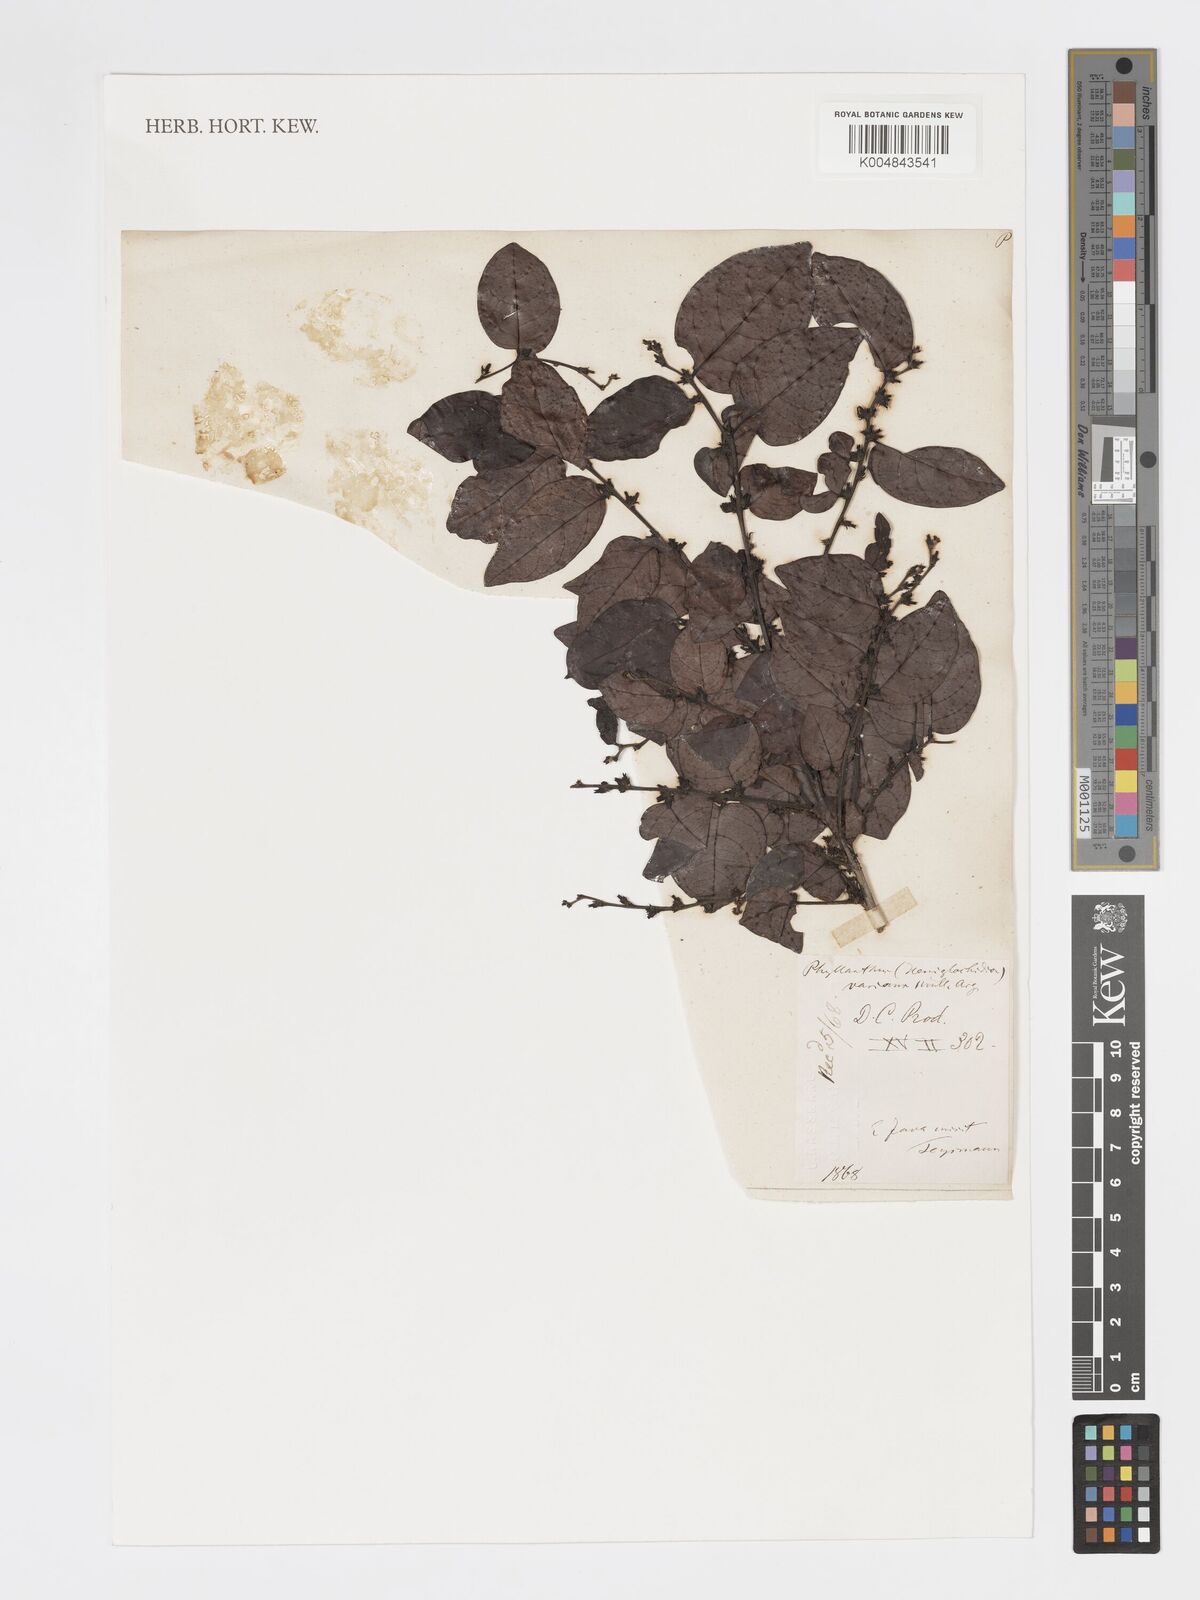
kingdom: Plantae
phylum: Tracheophyta
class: Magnoliopsida
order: Malpighiales
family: Phyllanthaceae
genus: Glochidion
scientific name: Glochidion varians
